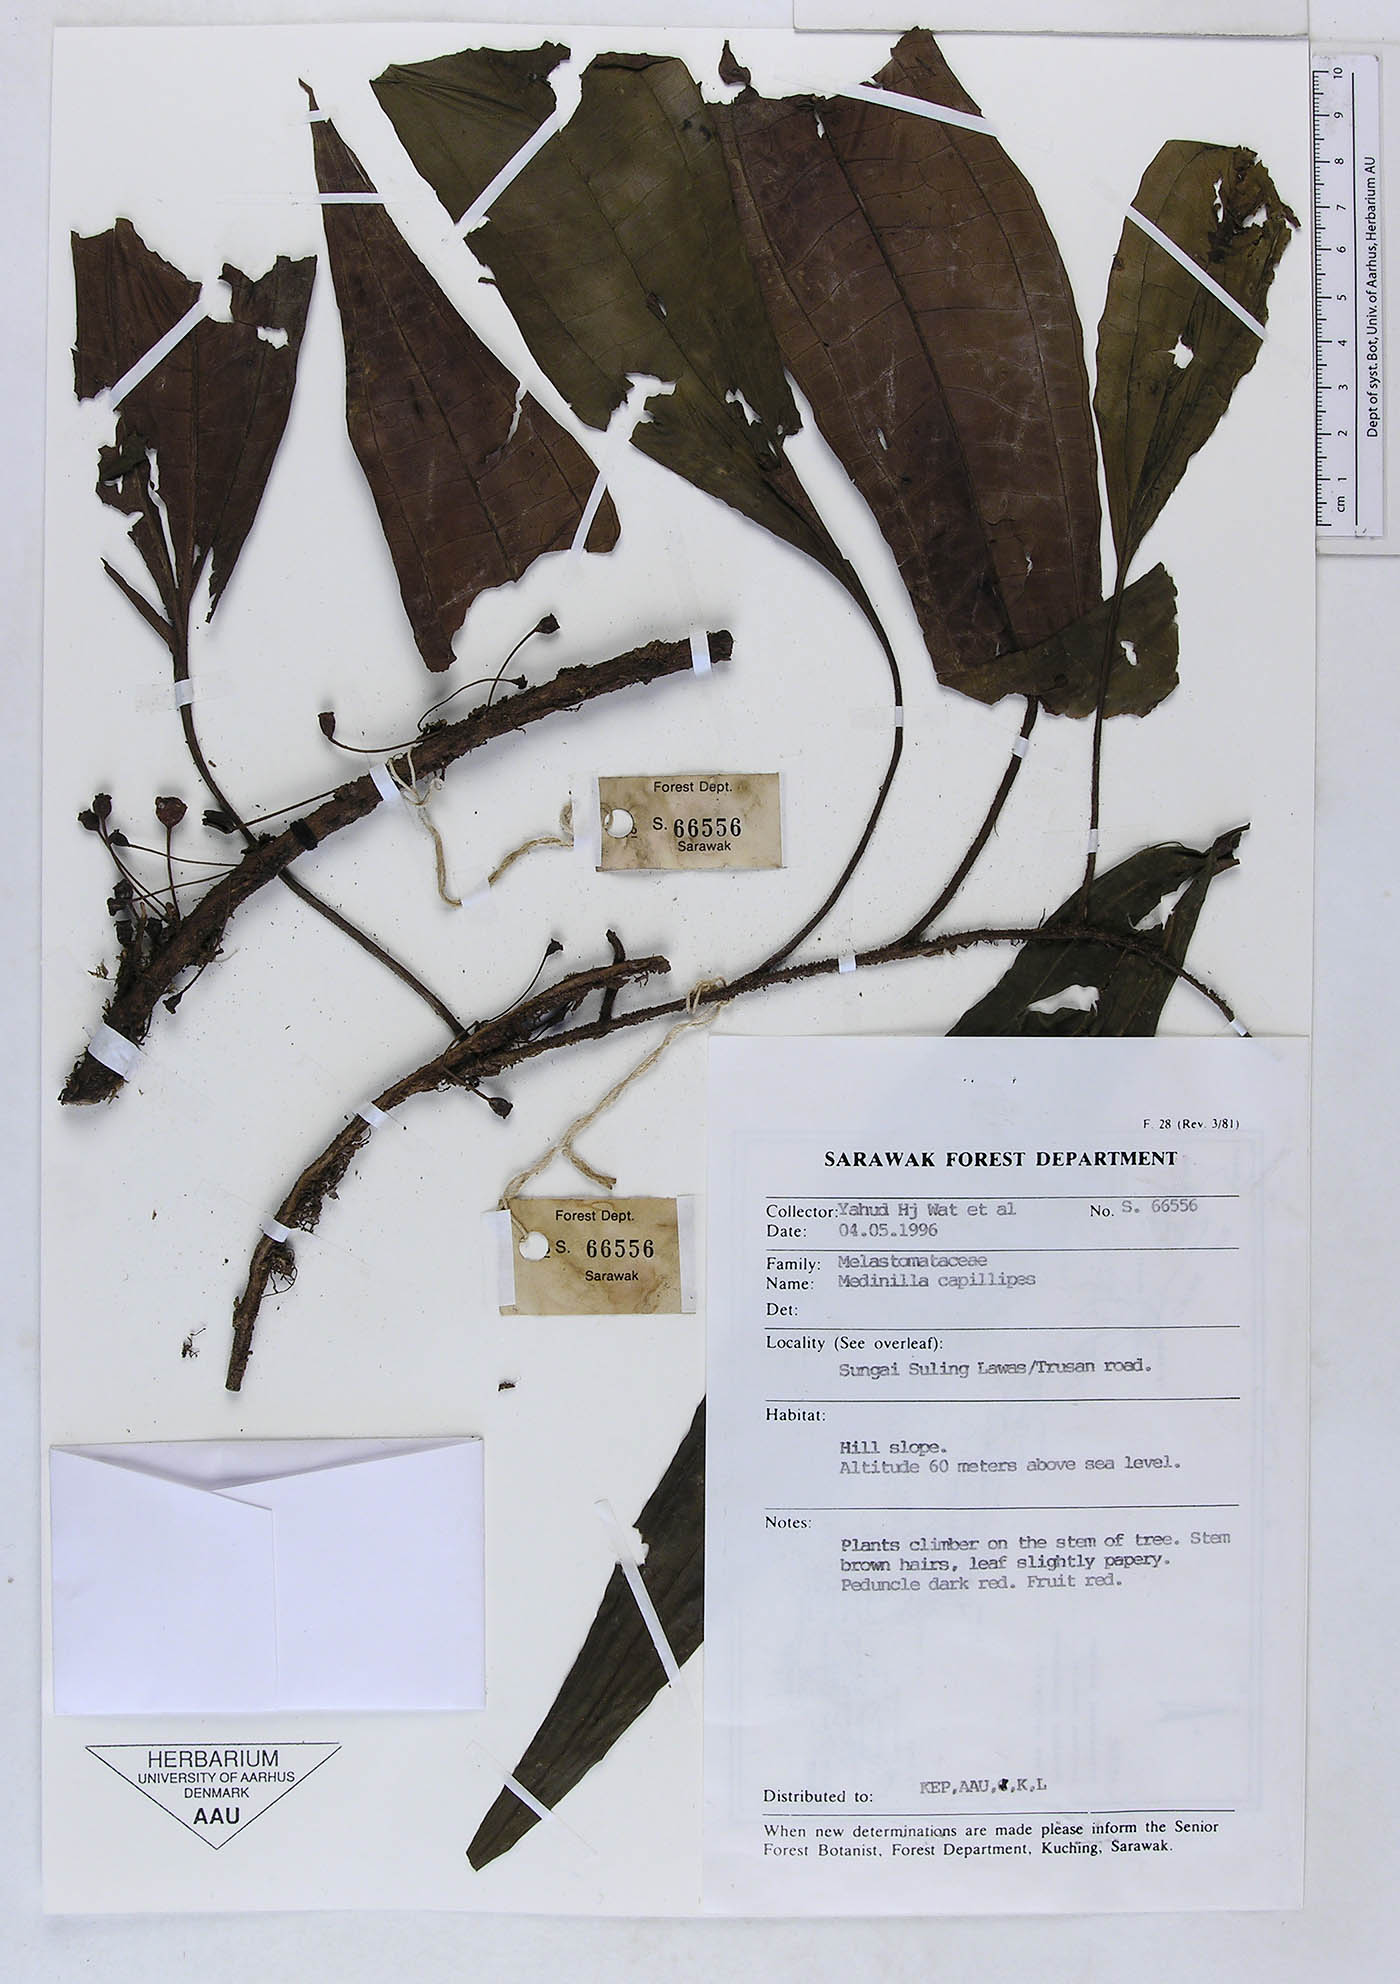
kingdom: Plantae
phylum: Tracheophyta
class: Magnoliopsida
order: Myrtales
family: Melastomataceae
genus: Heteroblemma
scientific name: Heteroblemma capillipes
